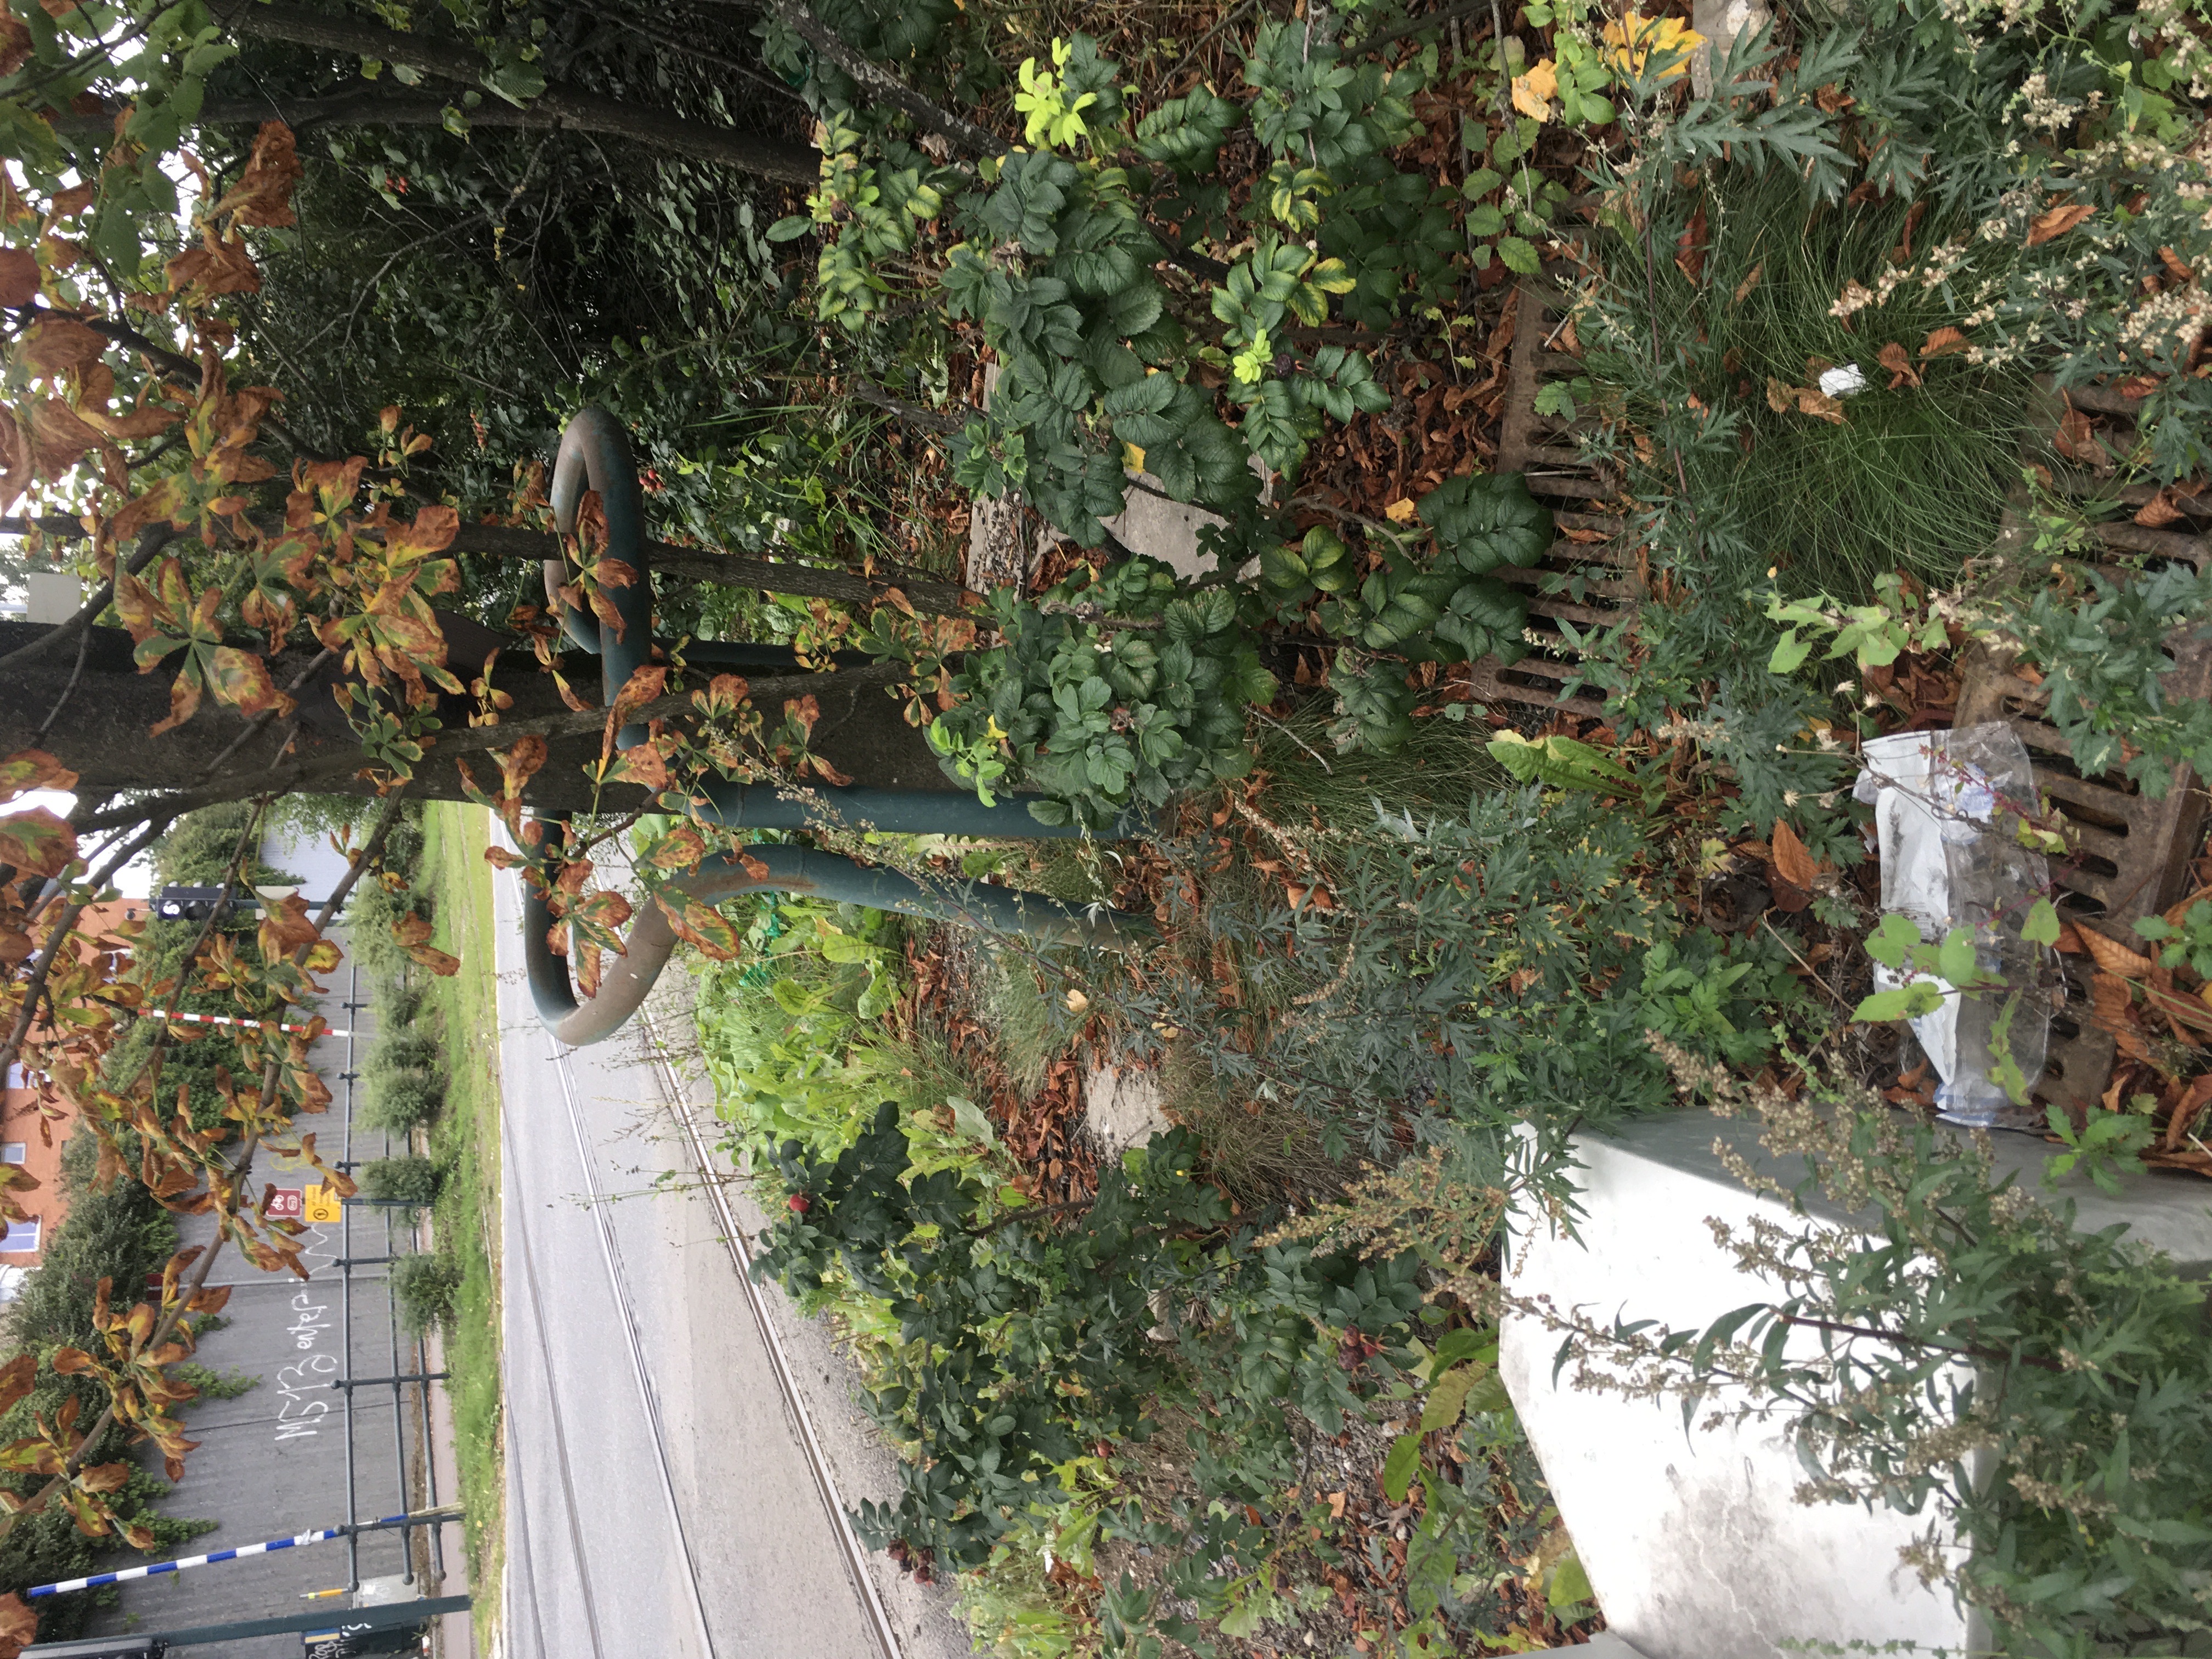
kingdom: Plantae
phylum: Tracheophyta
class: Magnoliopsida
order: Rosales
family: Rosaceae
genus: Rosa
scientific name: Rosa rugosa
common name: rynkerose
